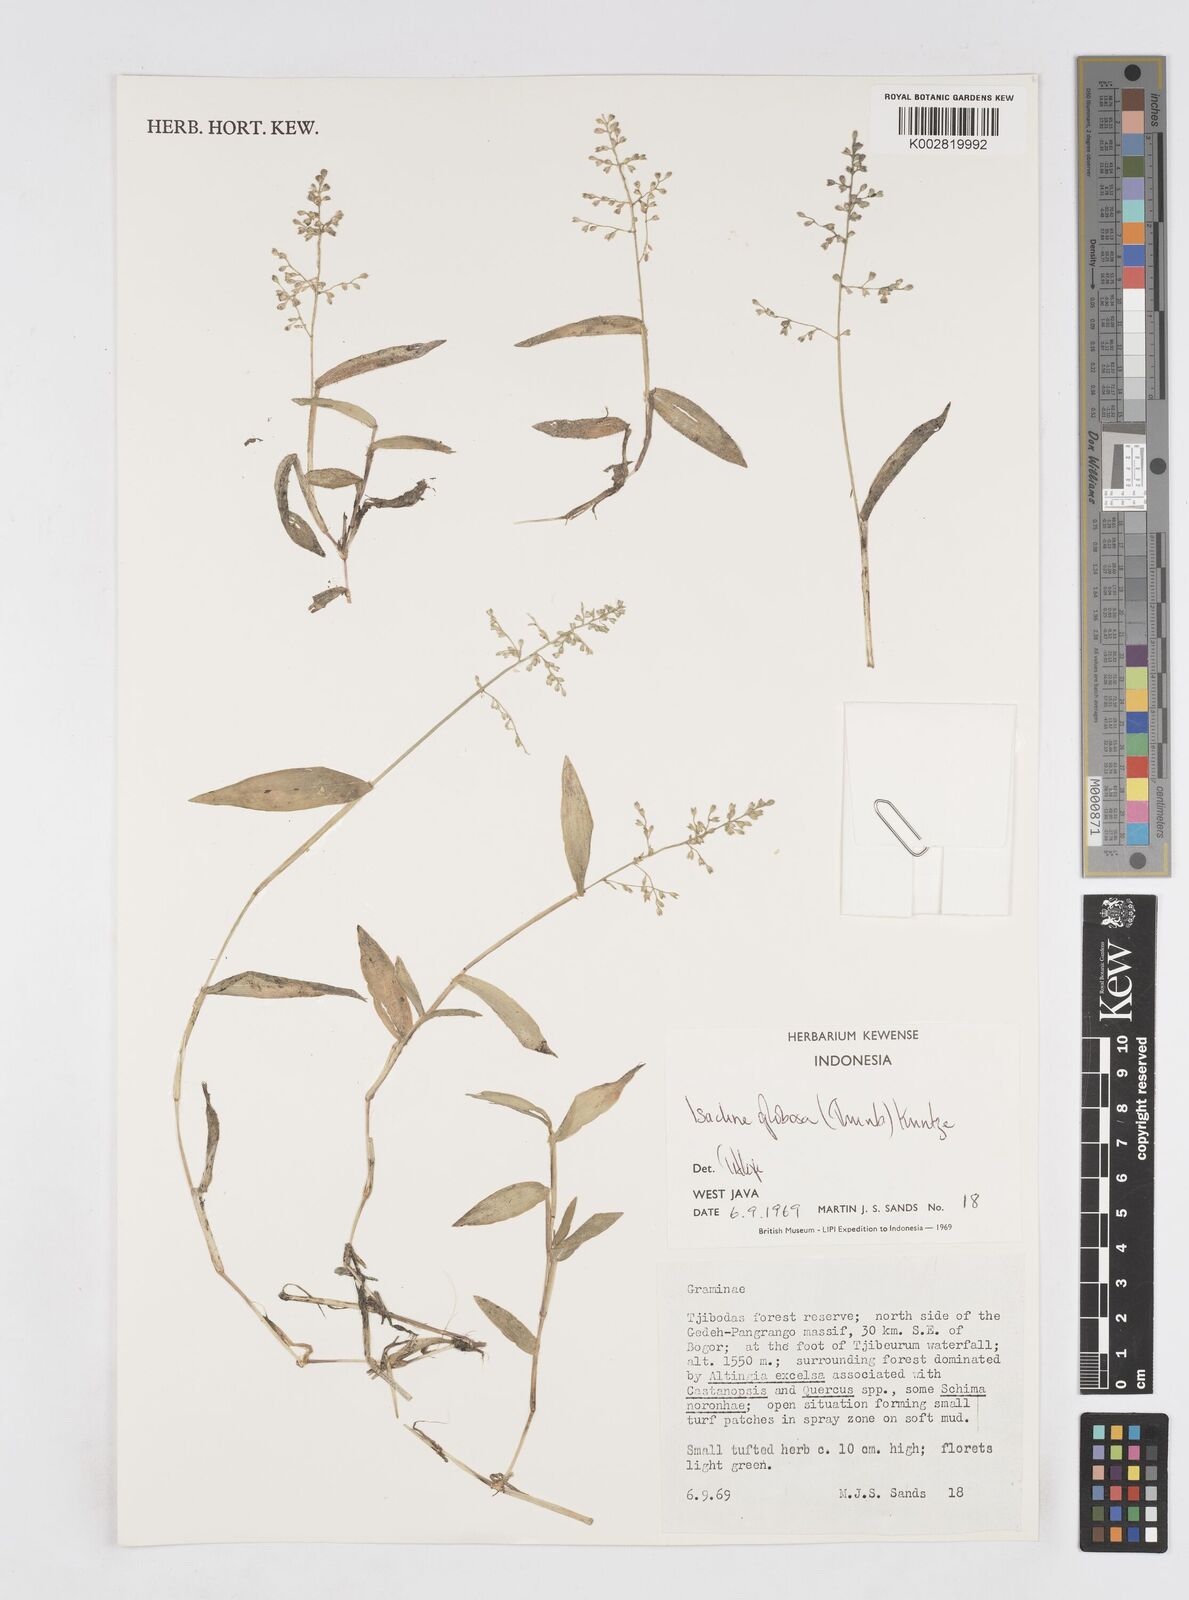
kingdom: Plantae
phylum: Tracheophyta
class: Liliopsida
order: Poales
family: Poaceae
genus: Isachne
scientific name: Isachne globosa
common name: Swamp millet
